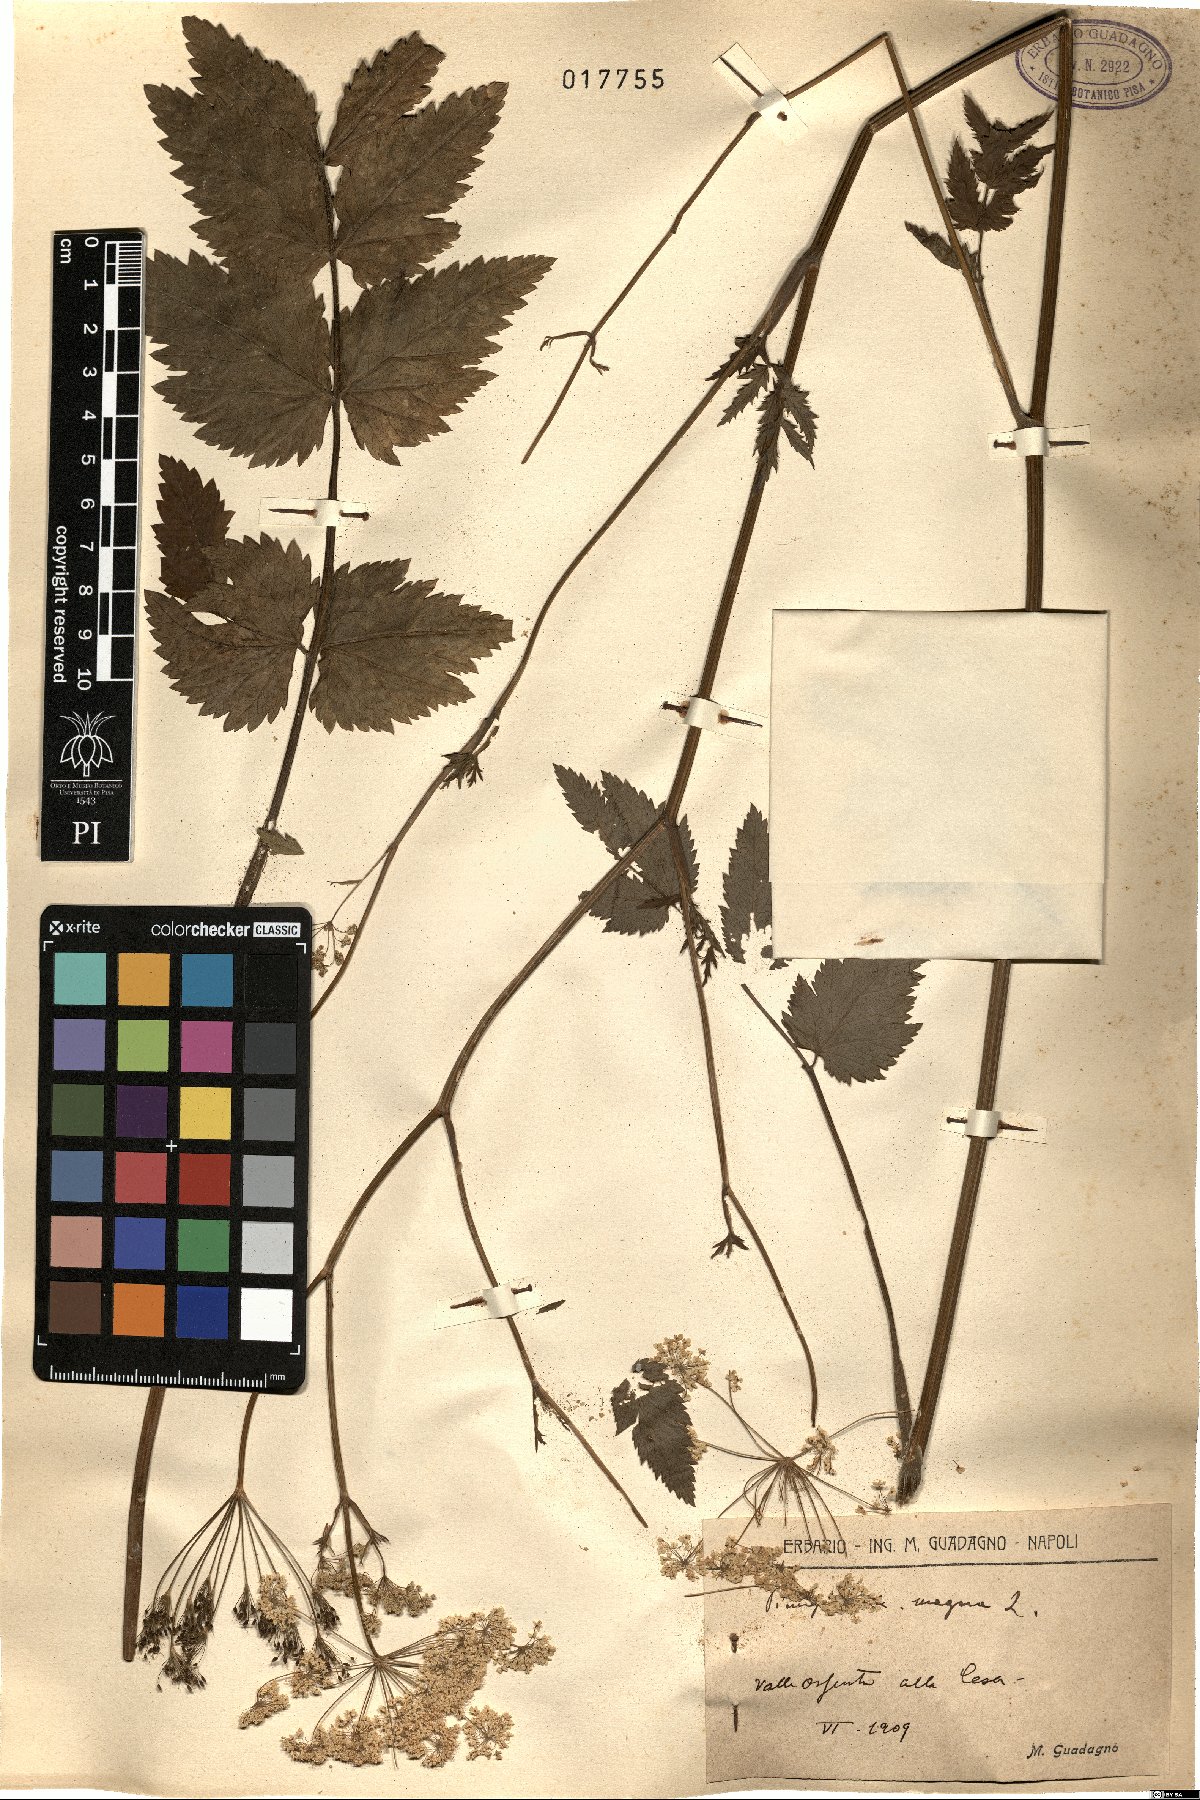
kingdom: Plantae
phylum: Tracheophyta
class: Magnoliopsida
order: Apiales
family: Apiaceae
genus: Pimpinella
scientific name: Pimpinella major
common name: Greater burnet-saxifrage
